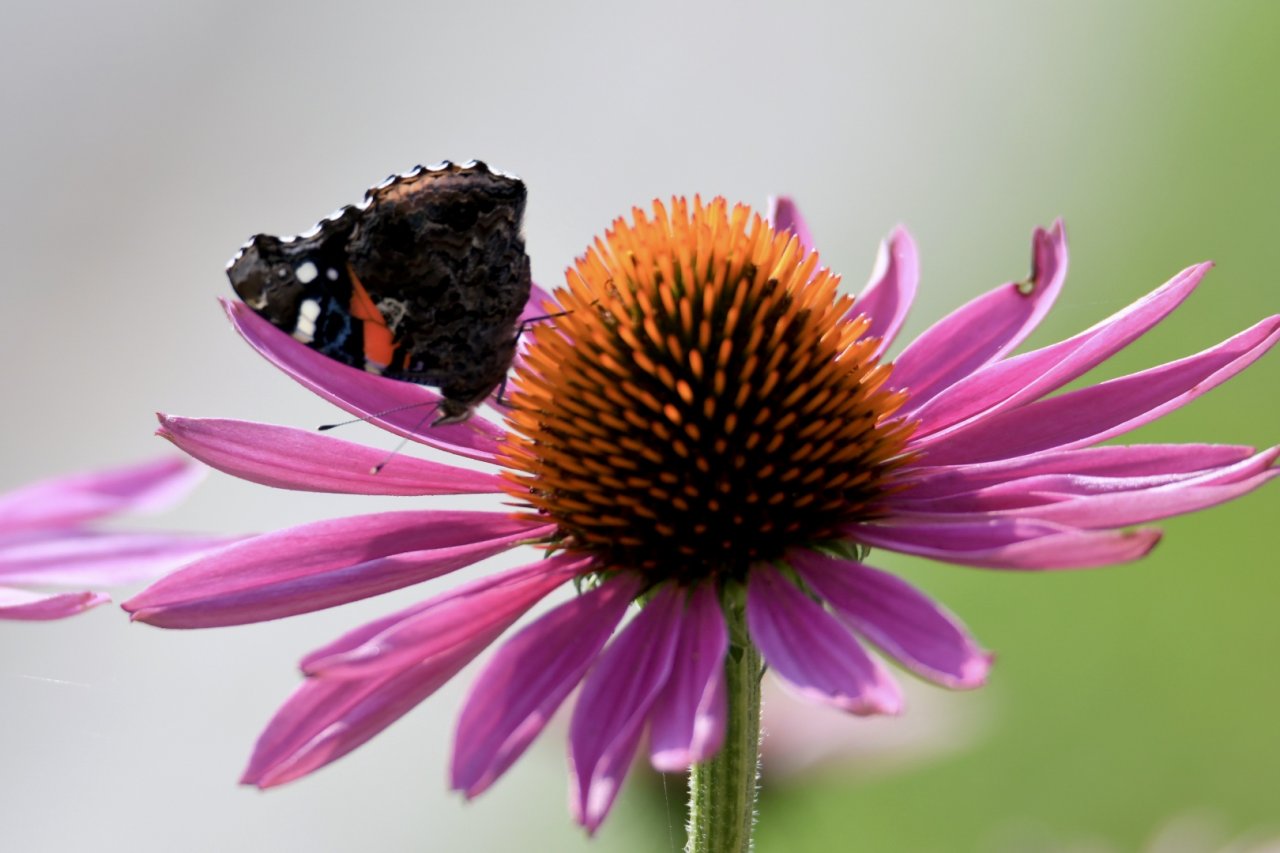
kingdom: Animalia
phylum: Arthropoda
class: Insecta
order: Lepidoptera
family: Nymphalidae
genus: Vanessa
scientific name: Vanessa atalanta
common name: Red Admiral
